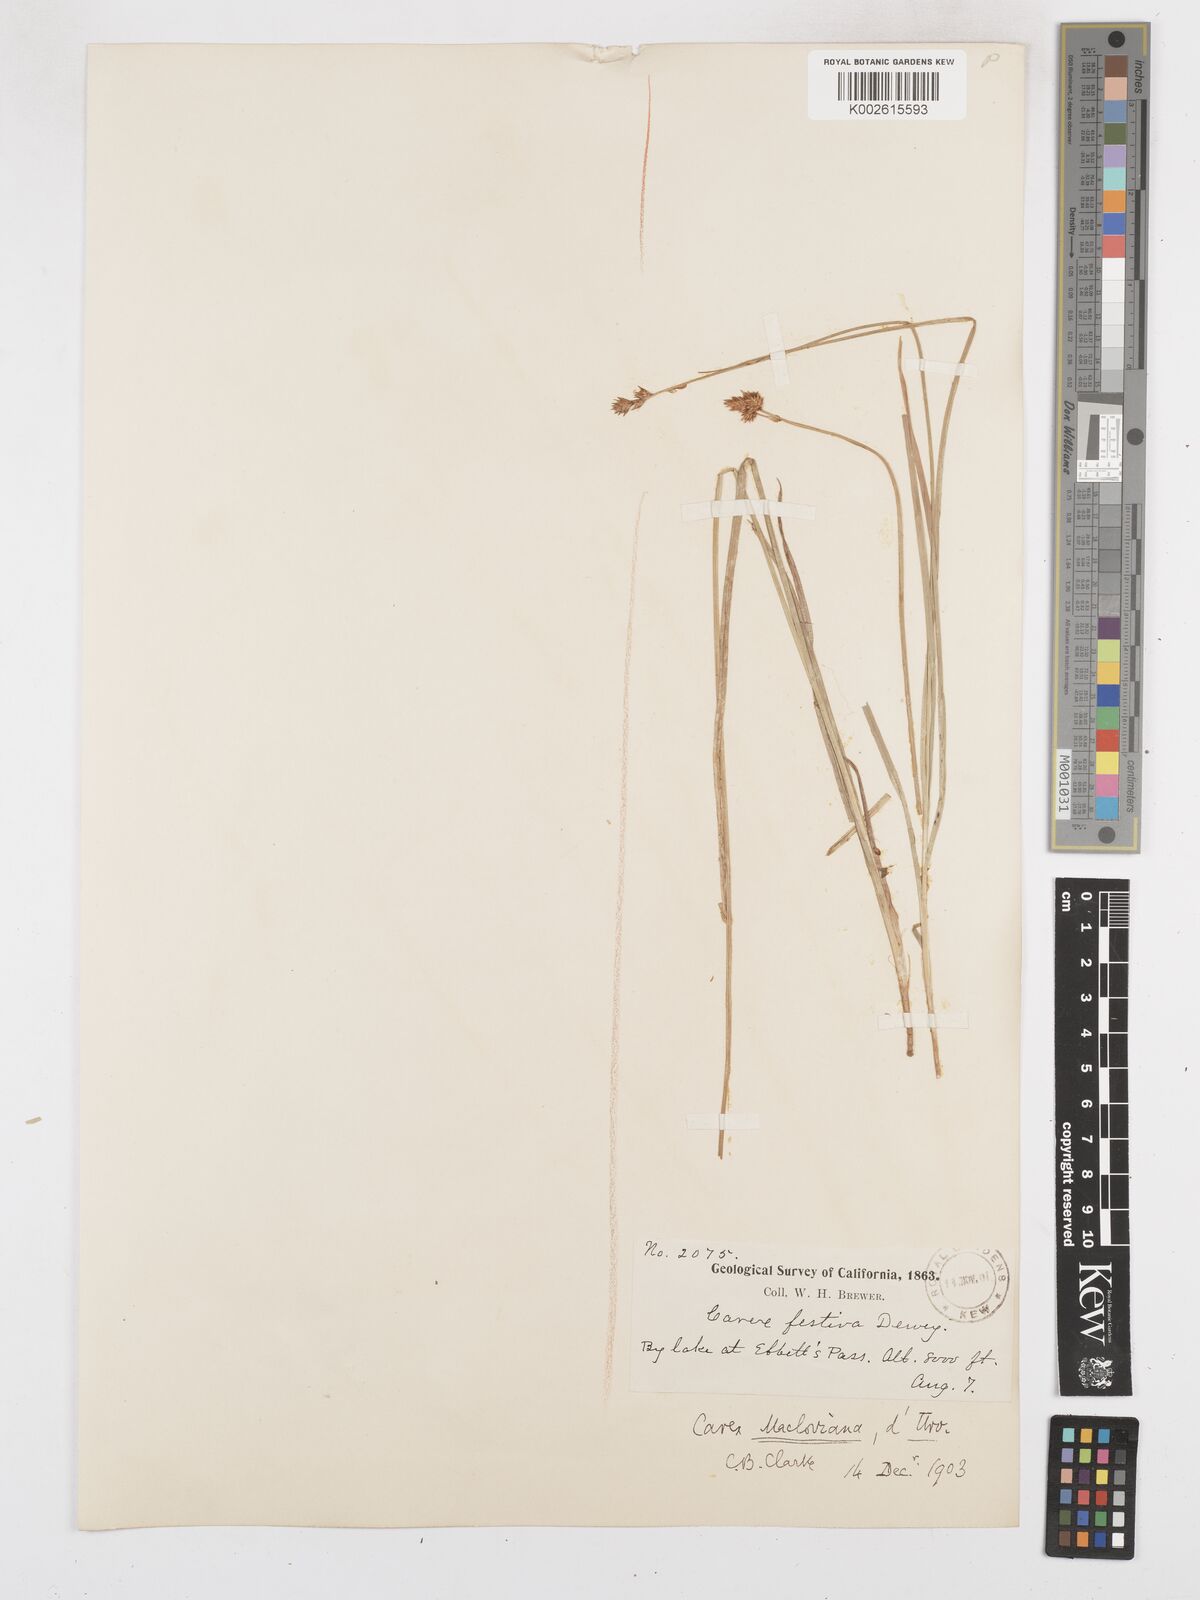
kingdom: Plantae
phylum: Tracheophyta
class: Liliopsida
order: Poales
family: Cyperaceae
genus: Carex
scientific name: Carex macloviana
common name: Falkland island sedge
